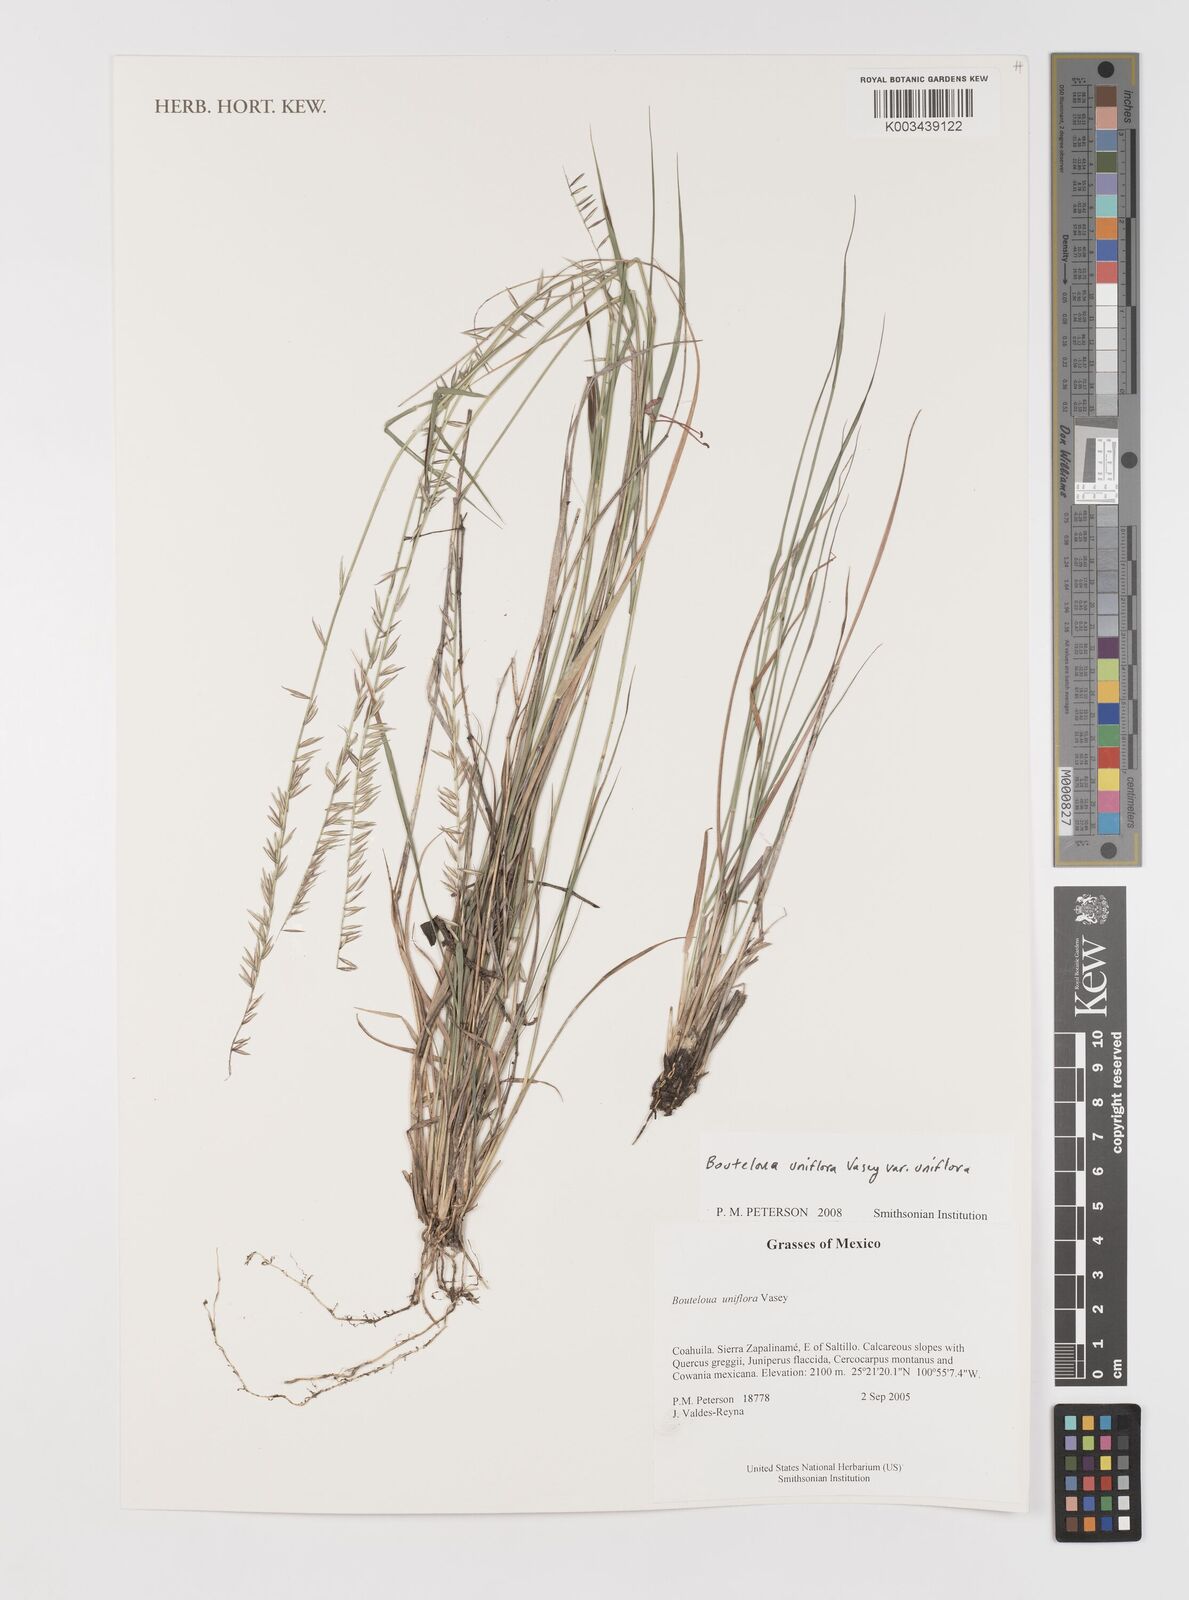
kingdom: Plantae
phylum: Tracheophyta
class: Liliopsida
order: Poales
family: Poaceae
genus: Bouteloua
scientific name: Bouteloua uniflora
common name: Neally's grama
